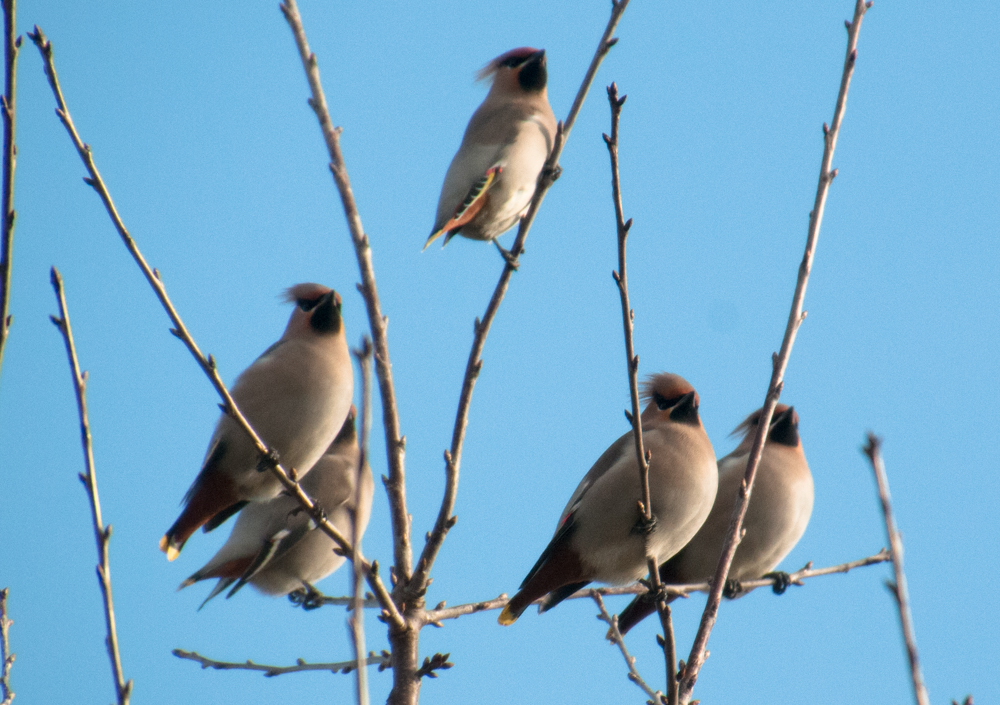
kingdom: Animalia
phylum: Chordata
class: Aves
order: Passeriformes
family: Bombycillidae
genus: Bombycilla
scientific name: Bombycilla garrulus
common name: Bohemian waxwing
